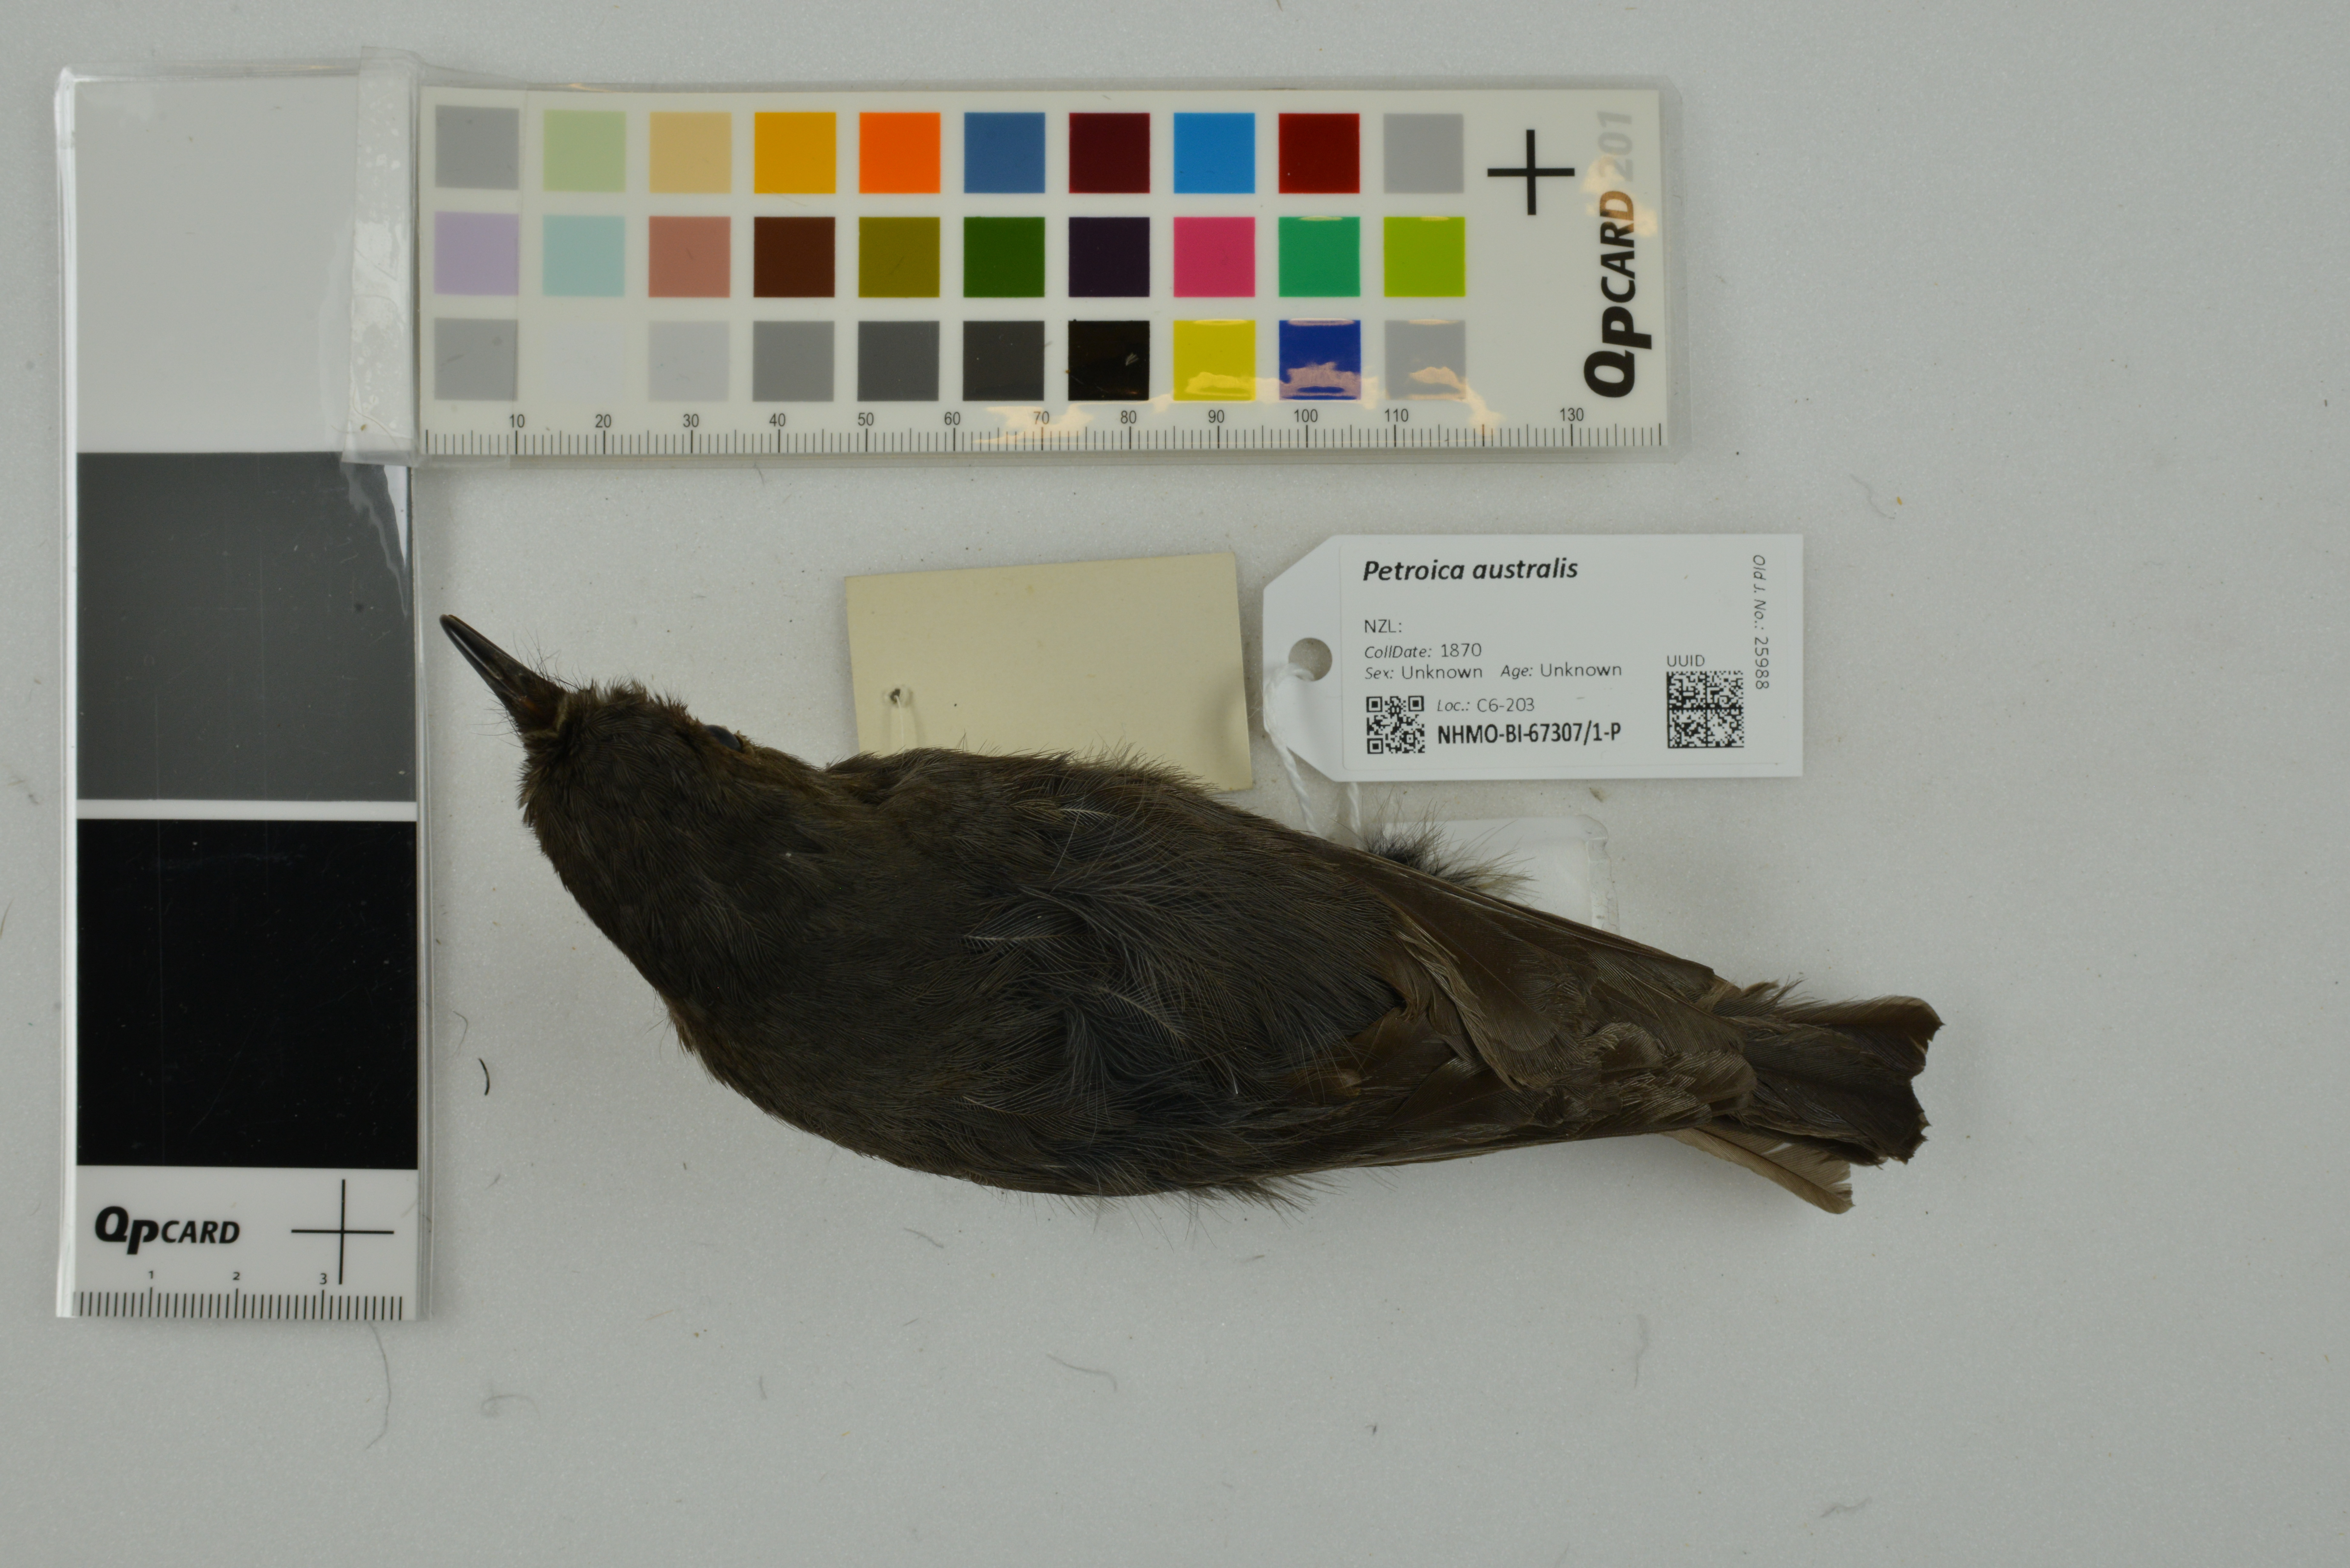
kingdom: Animalia
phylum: Chordata
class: Aves
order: Passeriformes
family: Petroicidae
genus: Petroica
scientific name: Petroica australis
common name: New zealand robin
